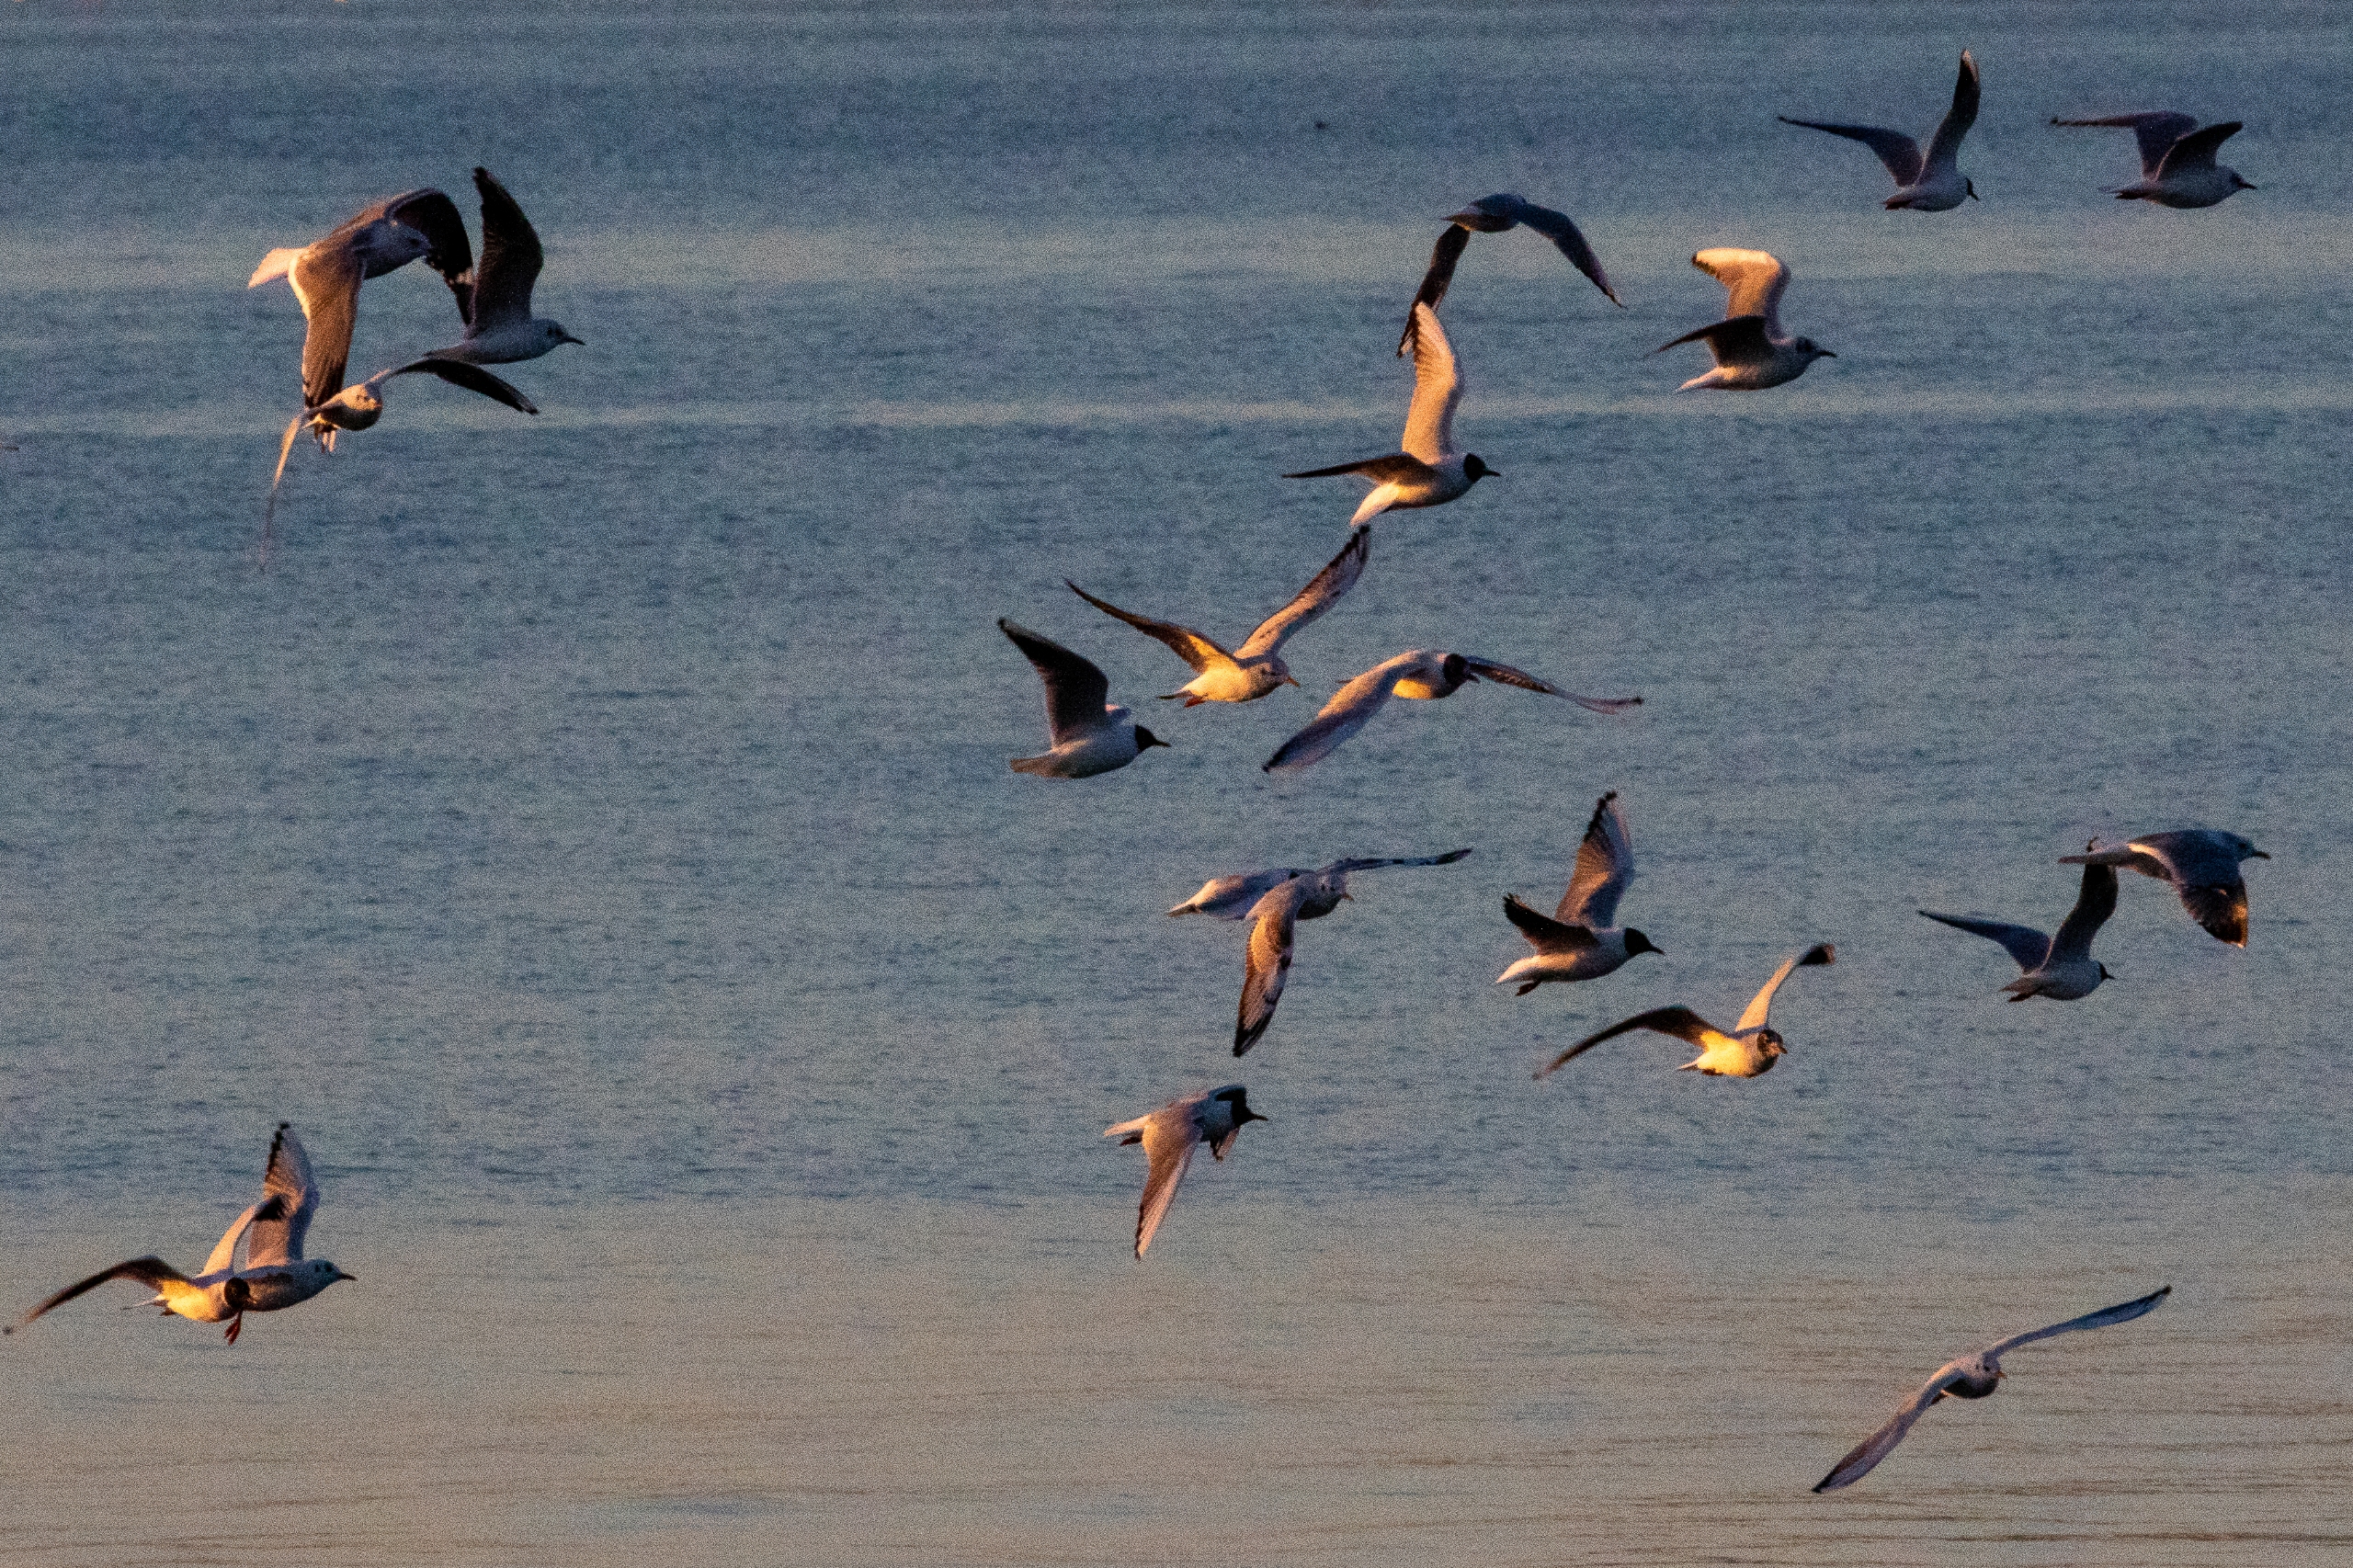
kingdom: Animalia
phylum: Chordata
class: Aves
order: Charadriiformes
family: Laridae
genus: Chroicocephalus
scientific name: Chroicocephalus ridibundus
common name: Hættemåge
